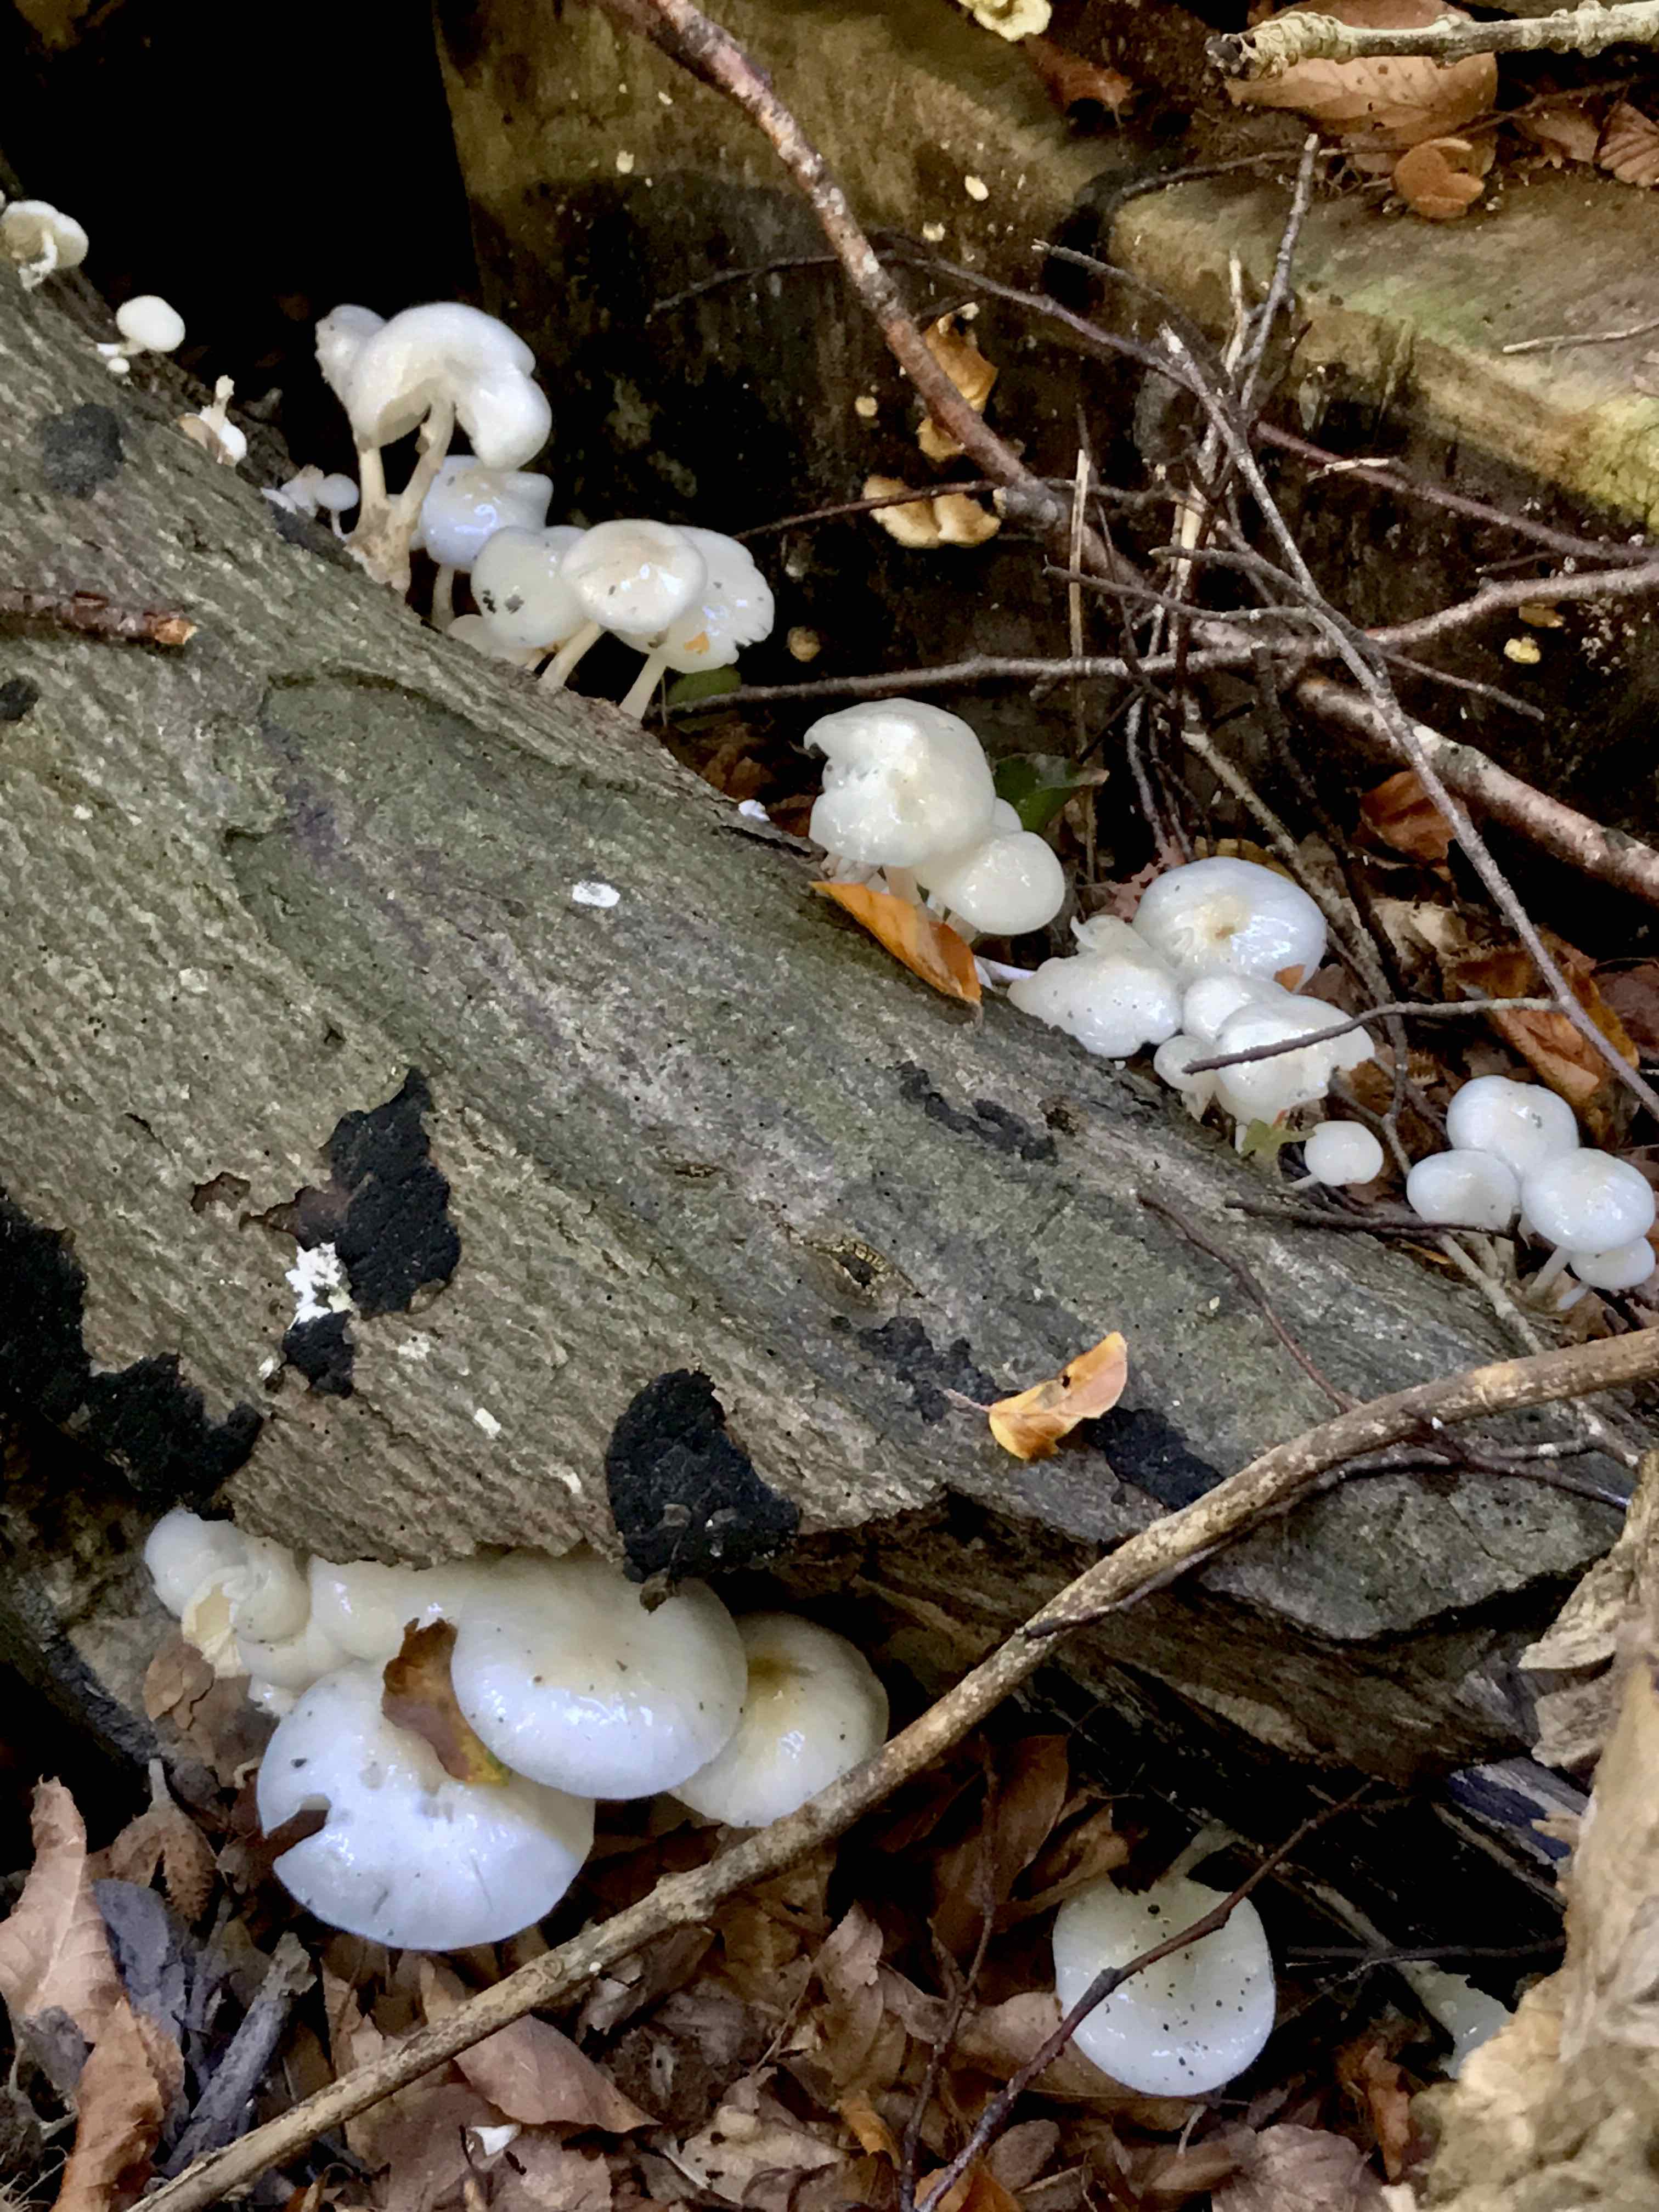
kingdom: Fungi
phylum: Basidiomycota
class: Agaricomycetes
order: Agaricales
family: Physalacriaceae
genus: Mucidula
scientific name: Mucidula mucida
